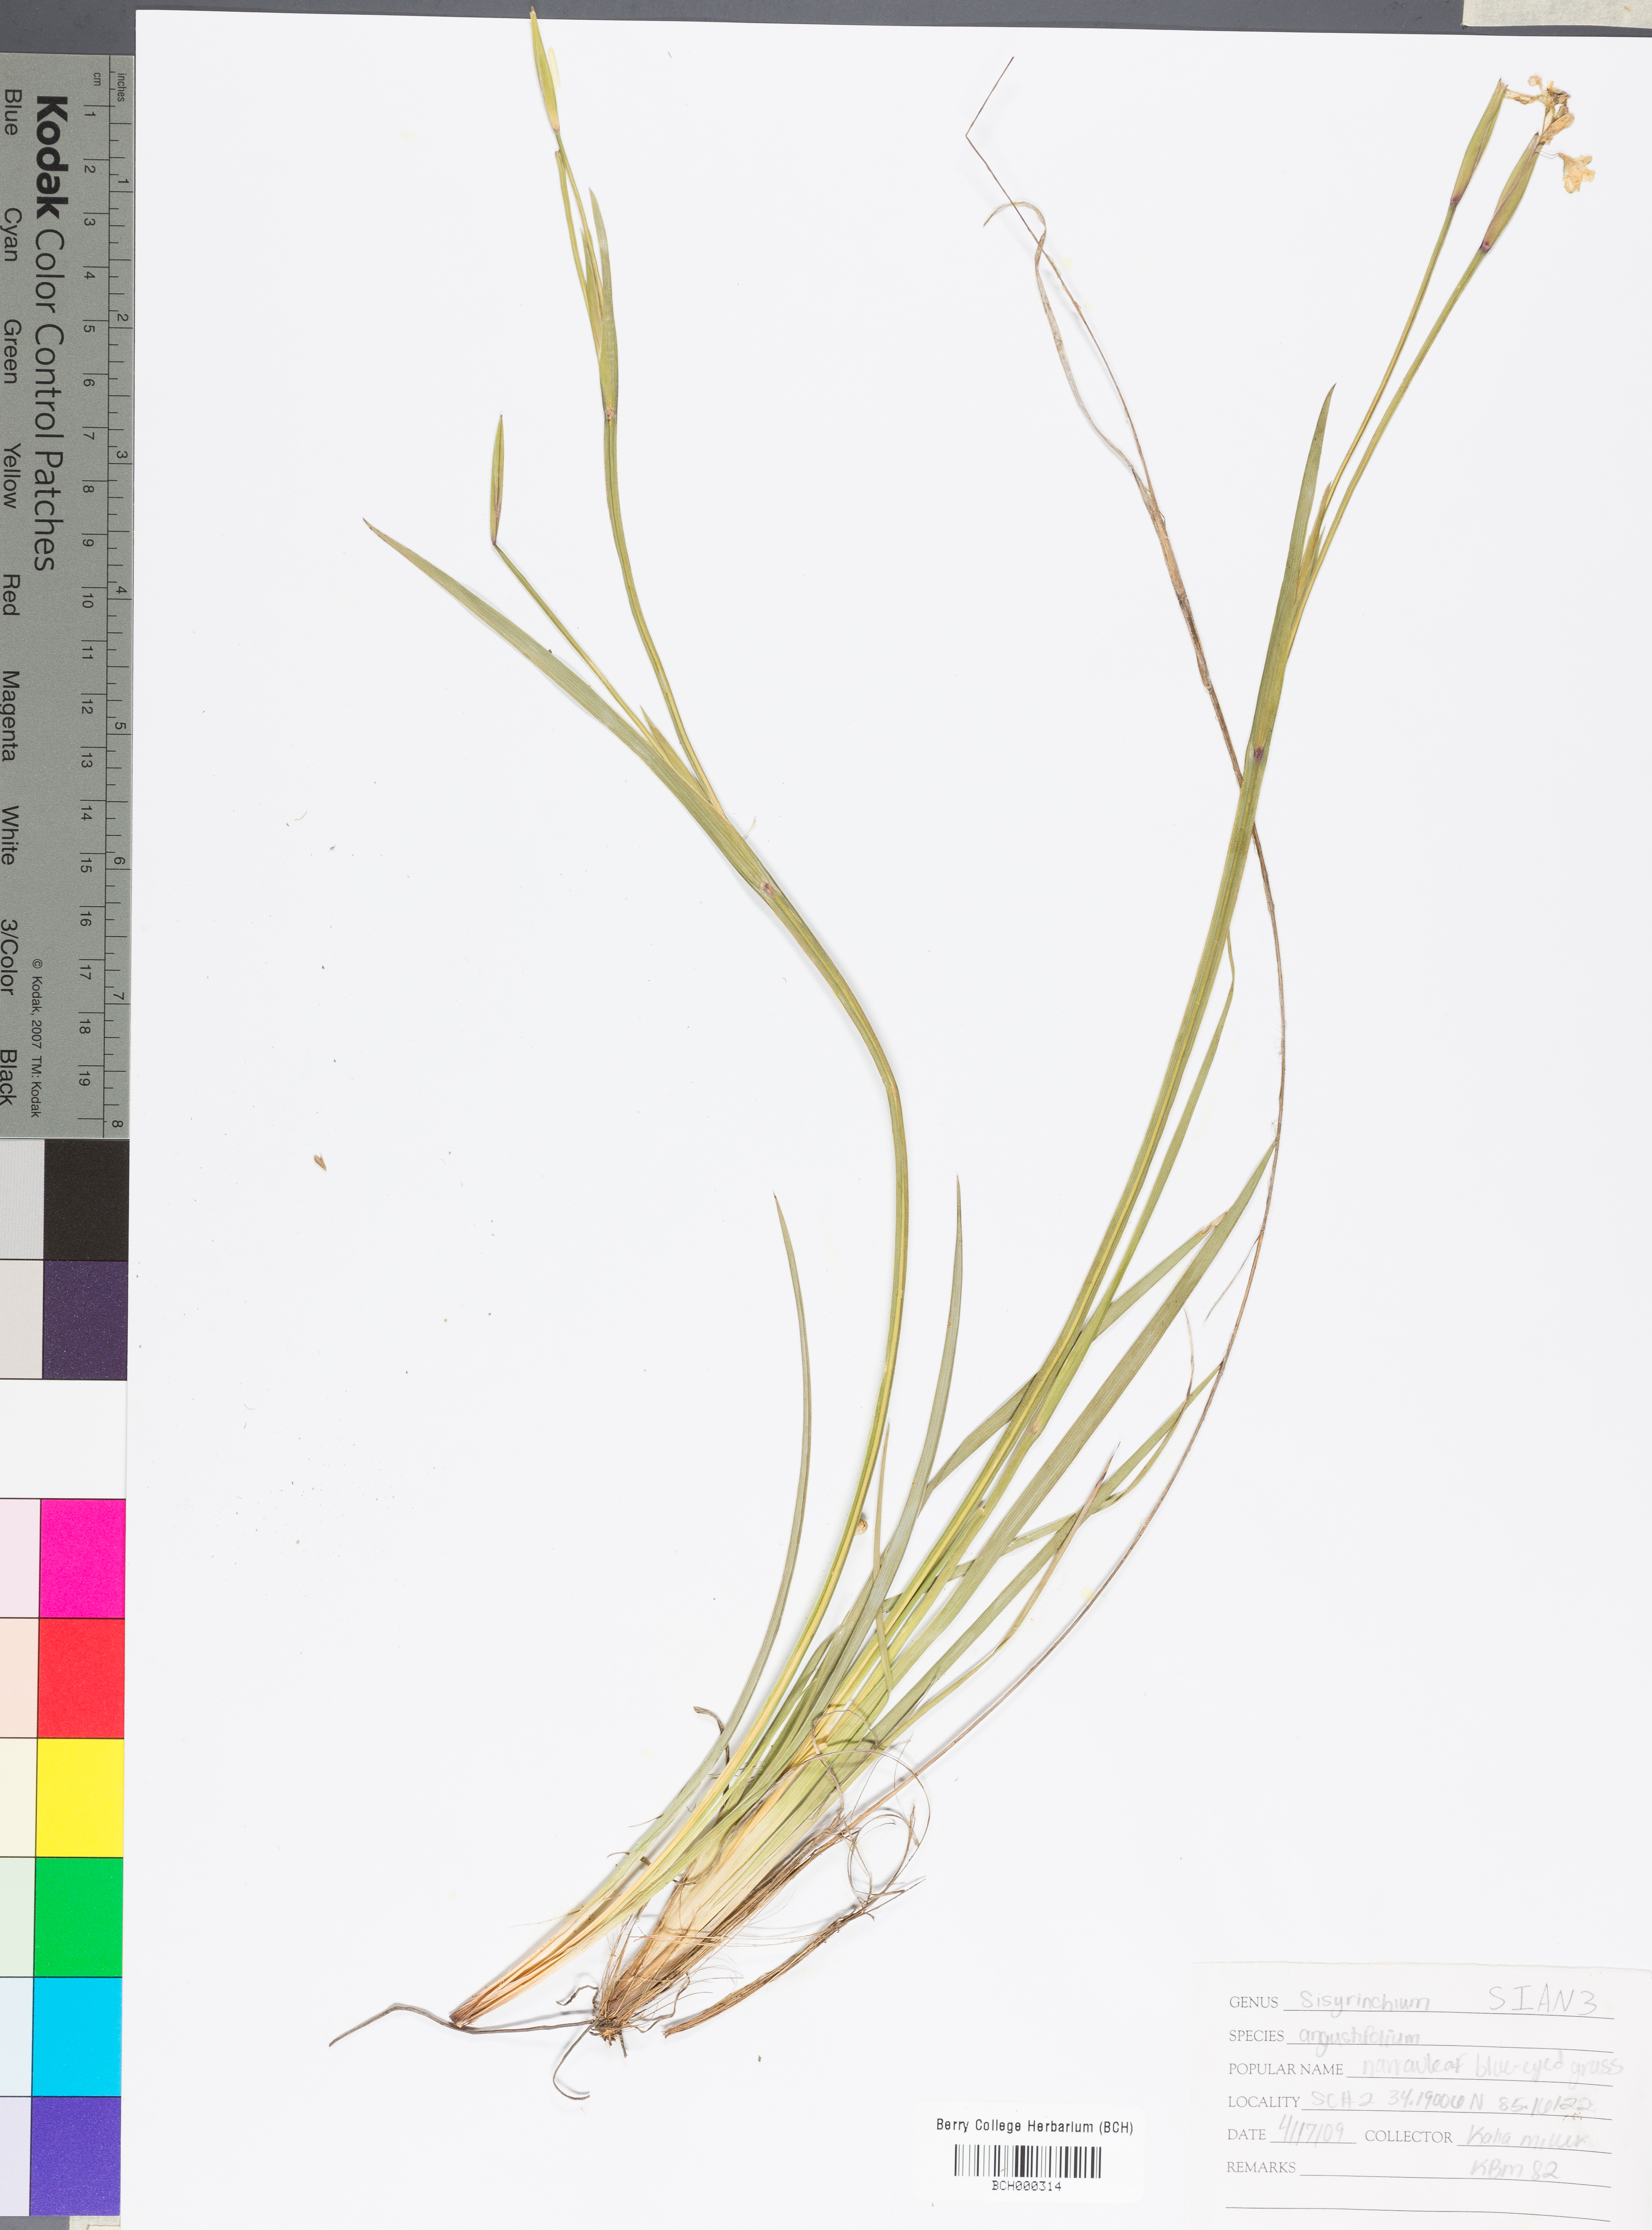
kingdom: Plantae
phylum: Tracheophyta
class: Liliopsida
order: Asparagales
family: Iridaceae
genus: Sisyrinchium
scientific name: Sisyrinchium angustifolium
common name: Narrow-leaf blue-eyed-grass
